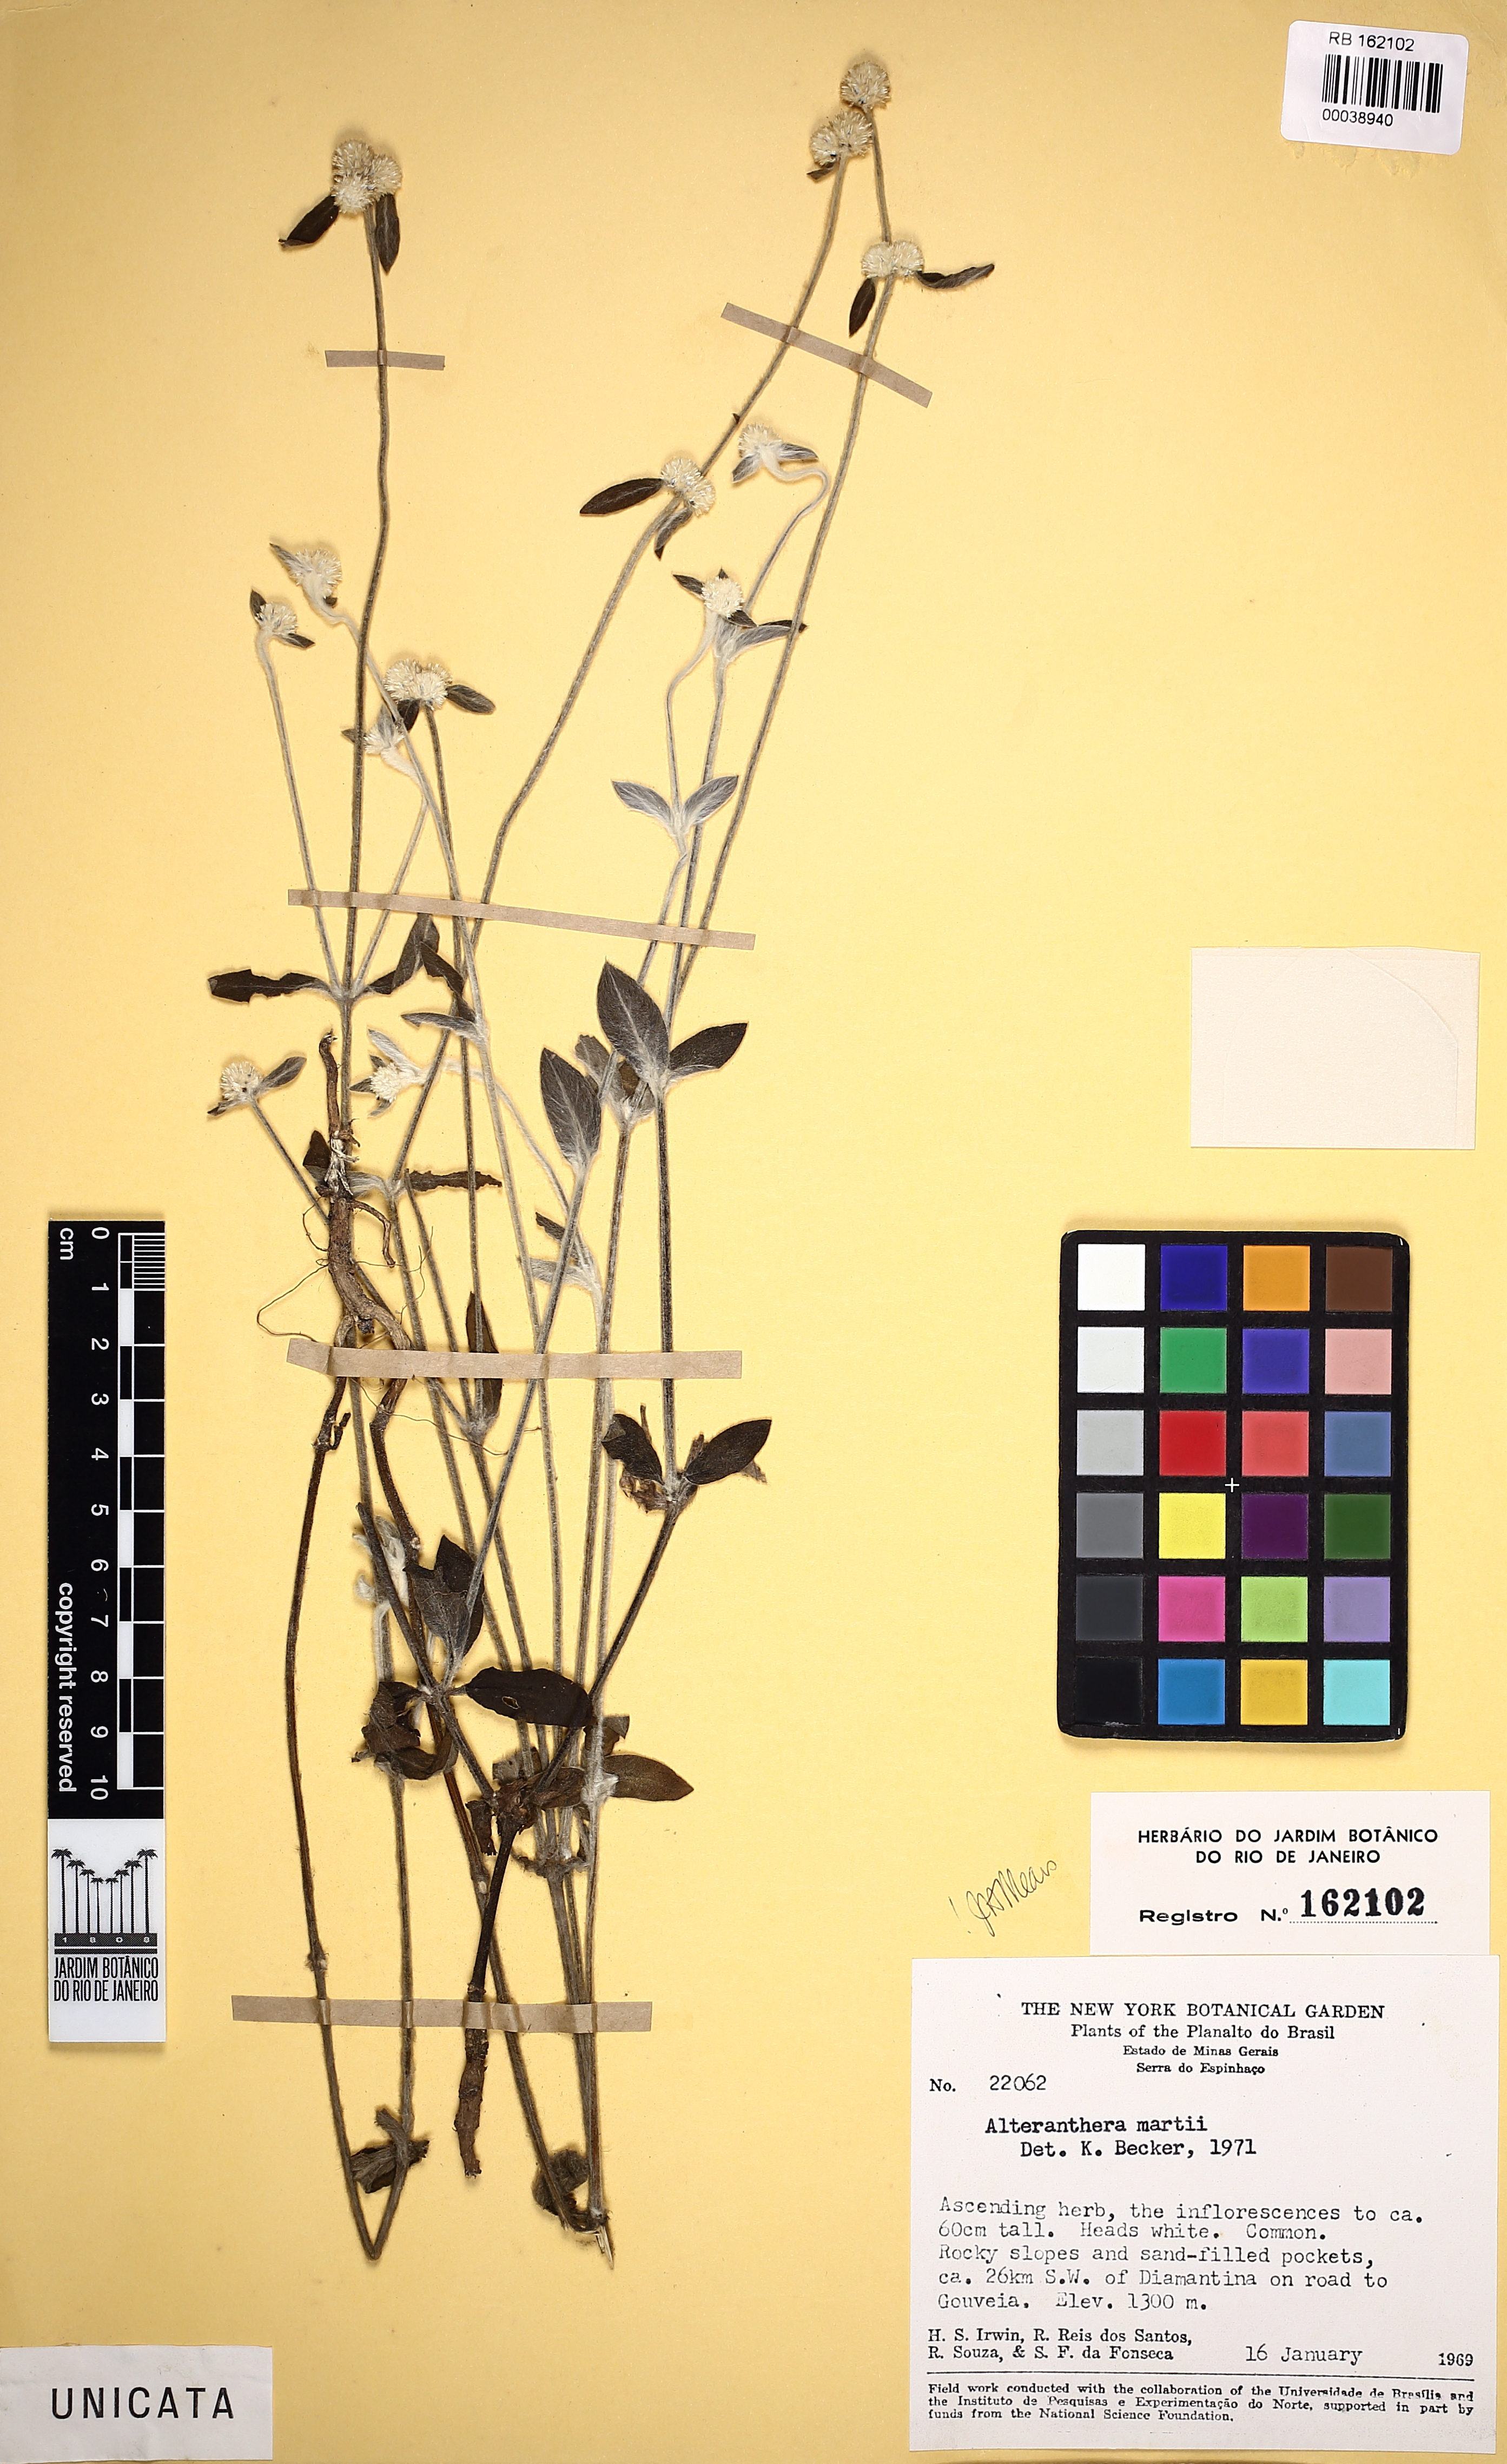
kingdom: Plantae
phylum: Tracheophyta
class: Magnoliopsida
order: Caryophyllales
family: Amaranthaceae
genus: Alternanthera
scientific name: Alternanthera martii
